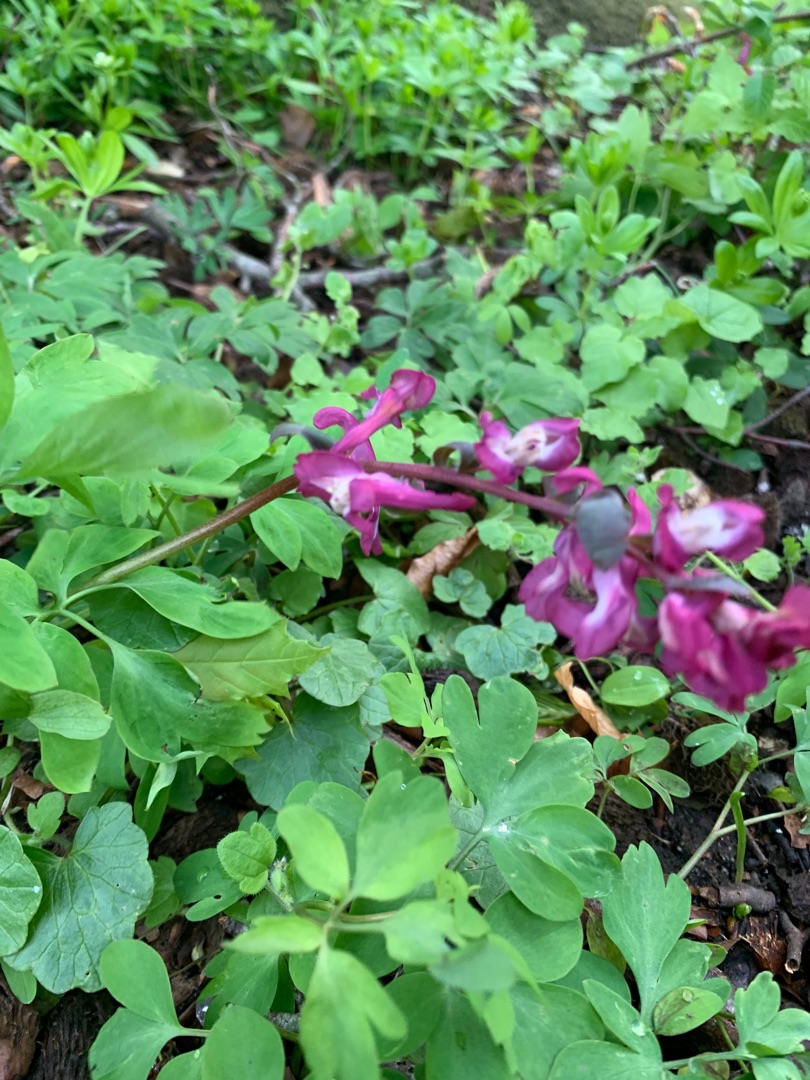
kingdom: Plantae
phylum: Tracheophyta
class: Magnoliopsida
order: Ranunculales
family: Papaveraceae
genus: Corydalis
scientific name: Corydalis cava
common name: Hulrodet lærkespore
